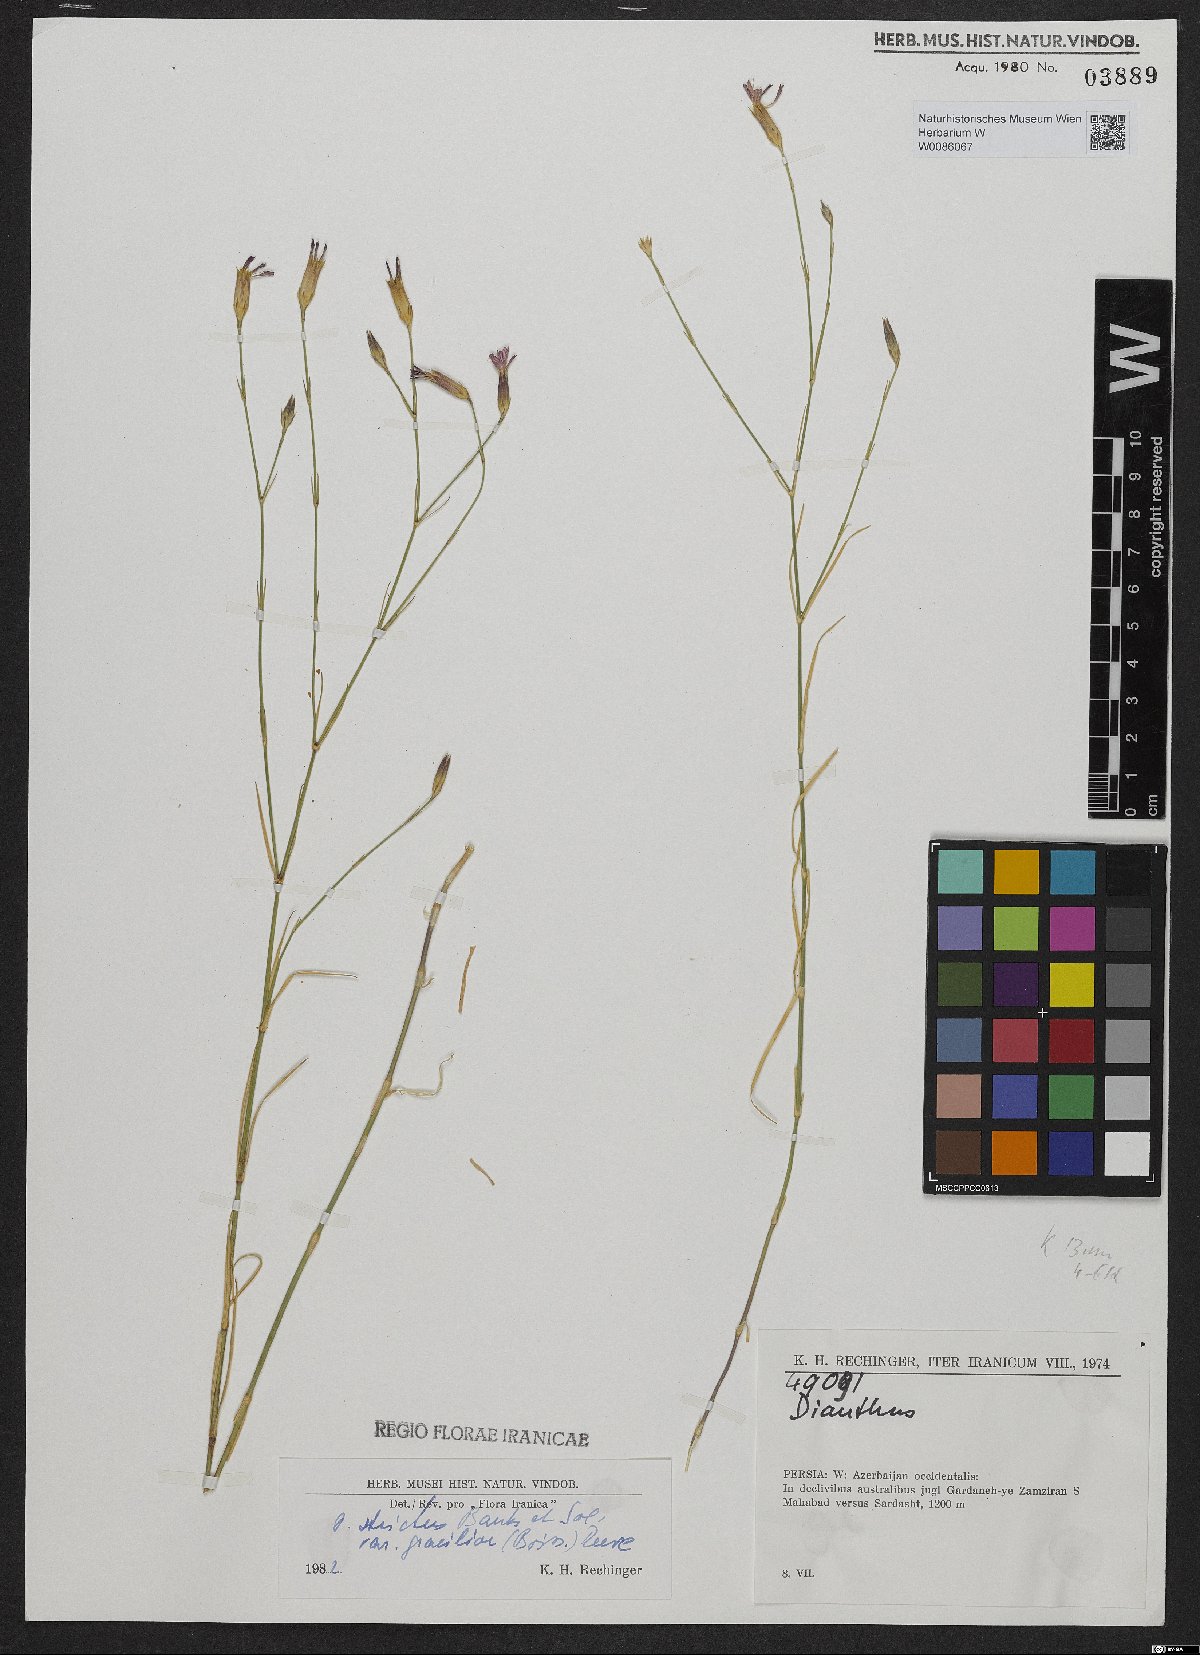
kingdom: Plantae
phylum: Tracheophyta
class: Magnoliopsida
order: Caryophyllales
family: Caryophyllaceae
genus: Dianthus
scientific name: Dianthus strictus
